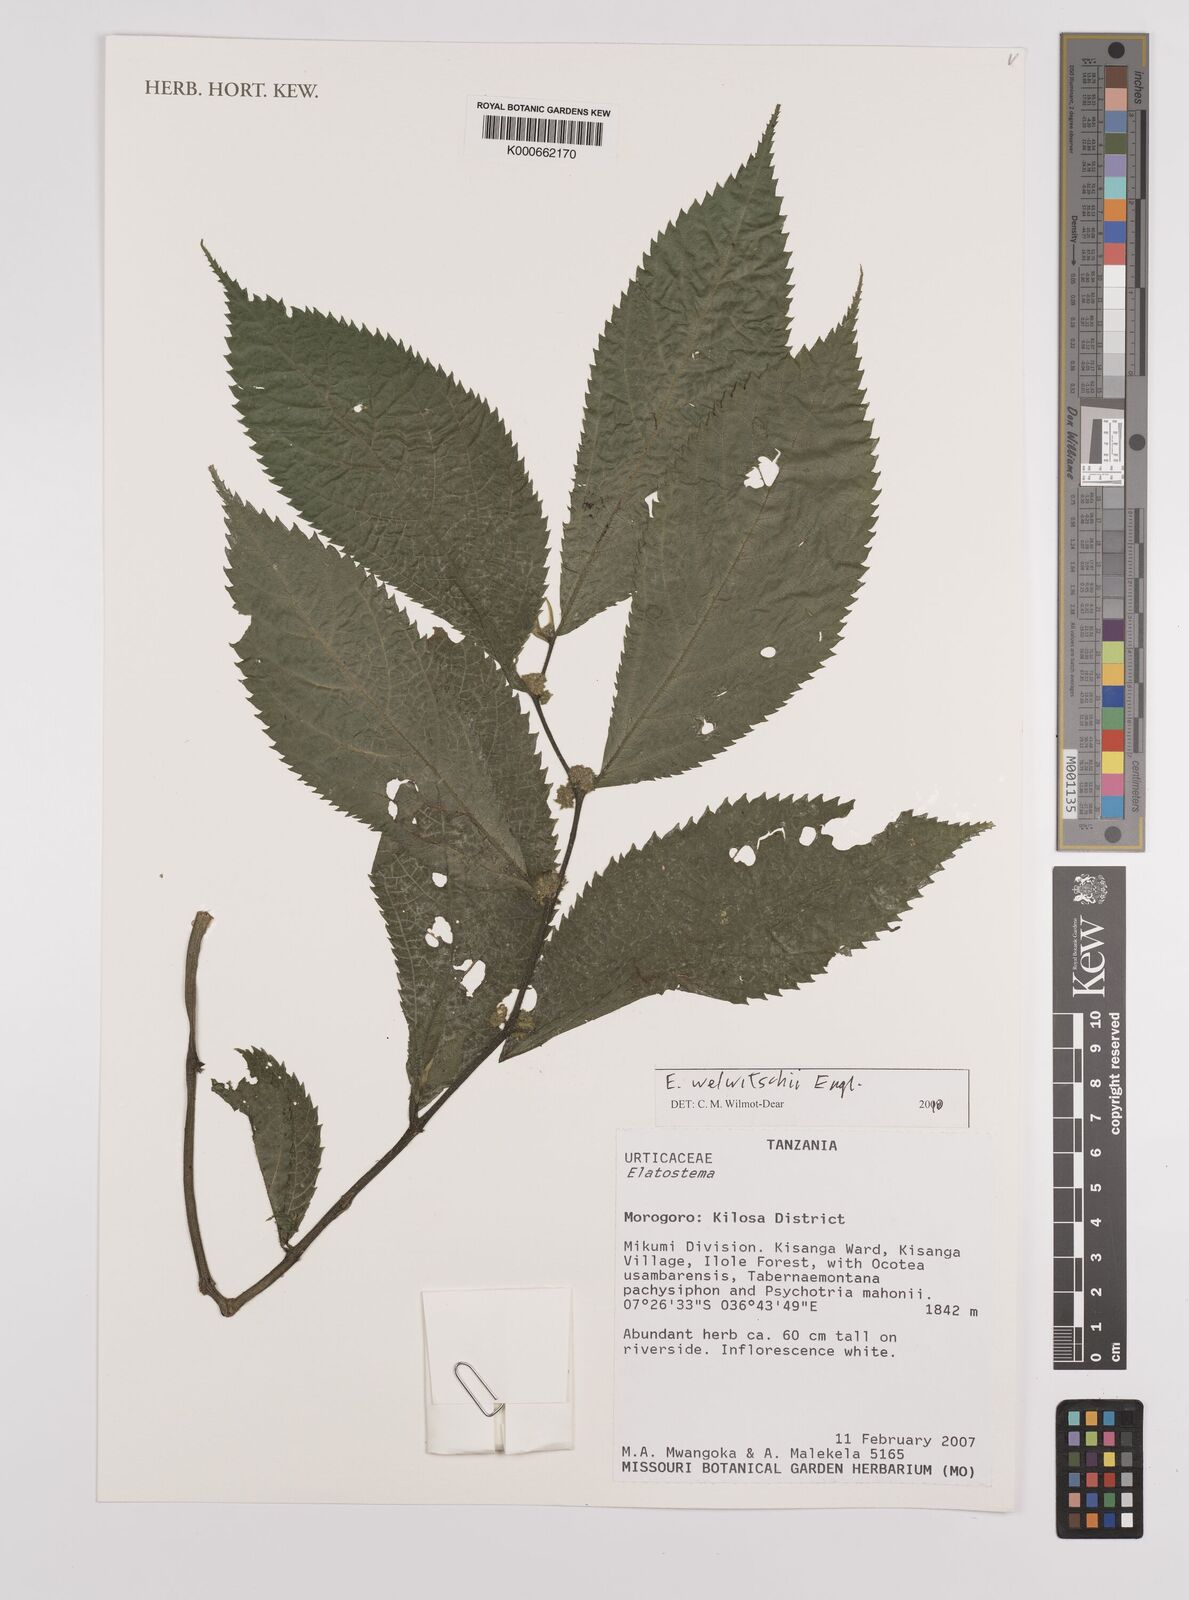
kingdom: Plantae
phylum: Tracheophyta
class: Magnoliopsida
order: Rosales
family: Urticaceae
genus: Elatostema
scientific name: Elatostema welwitschii
